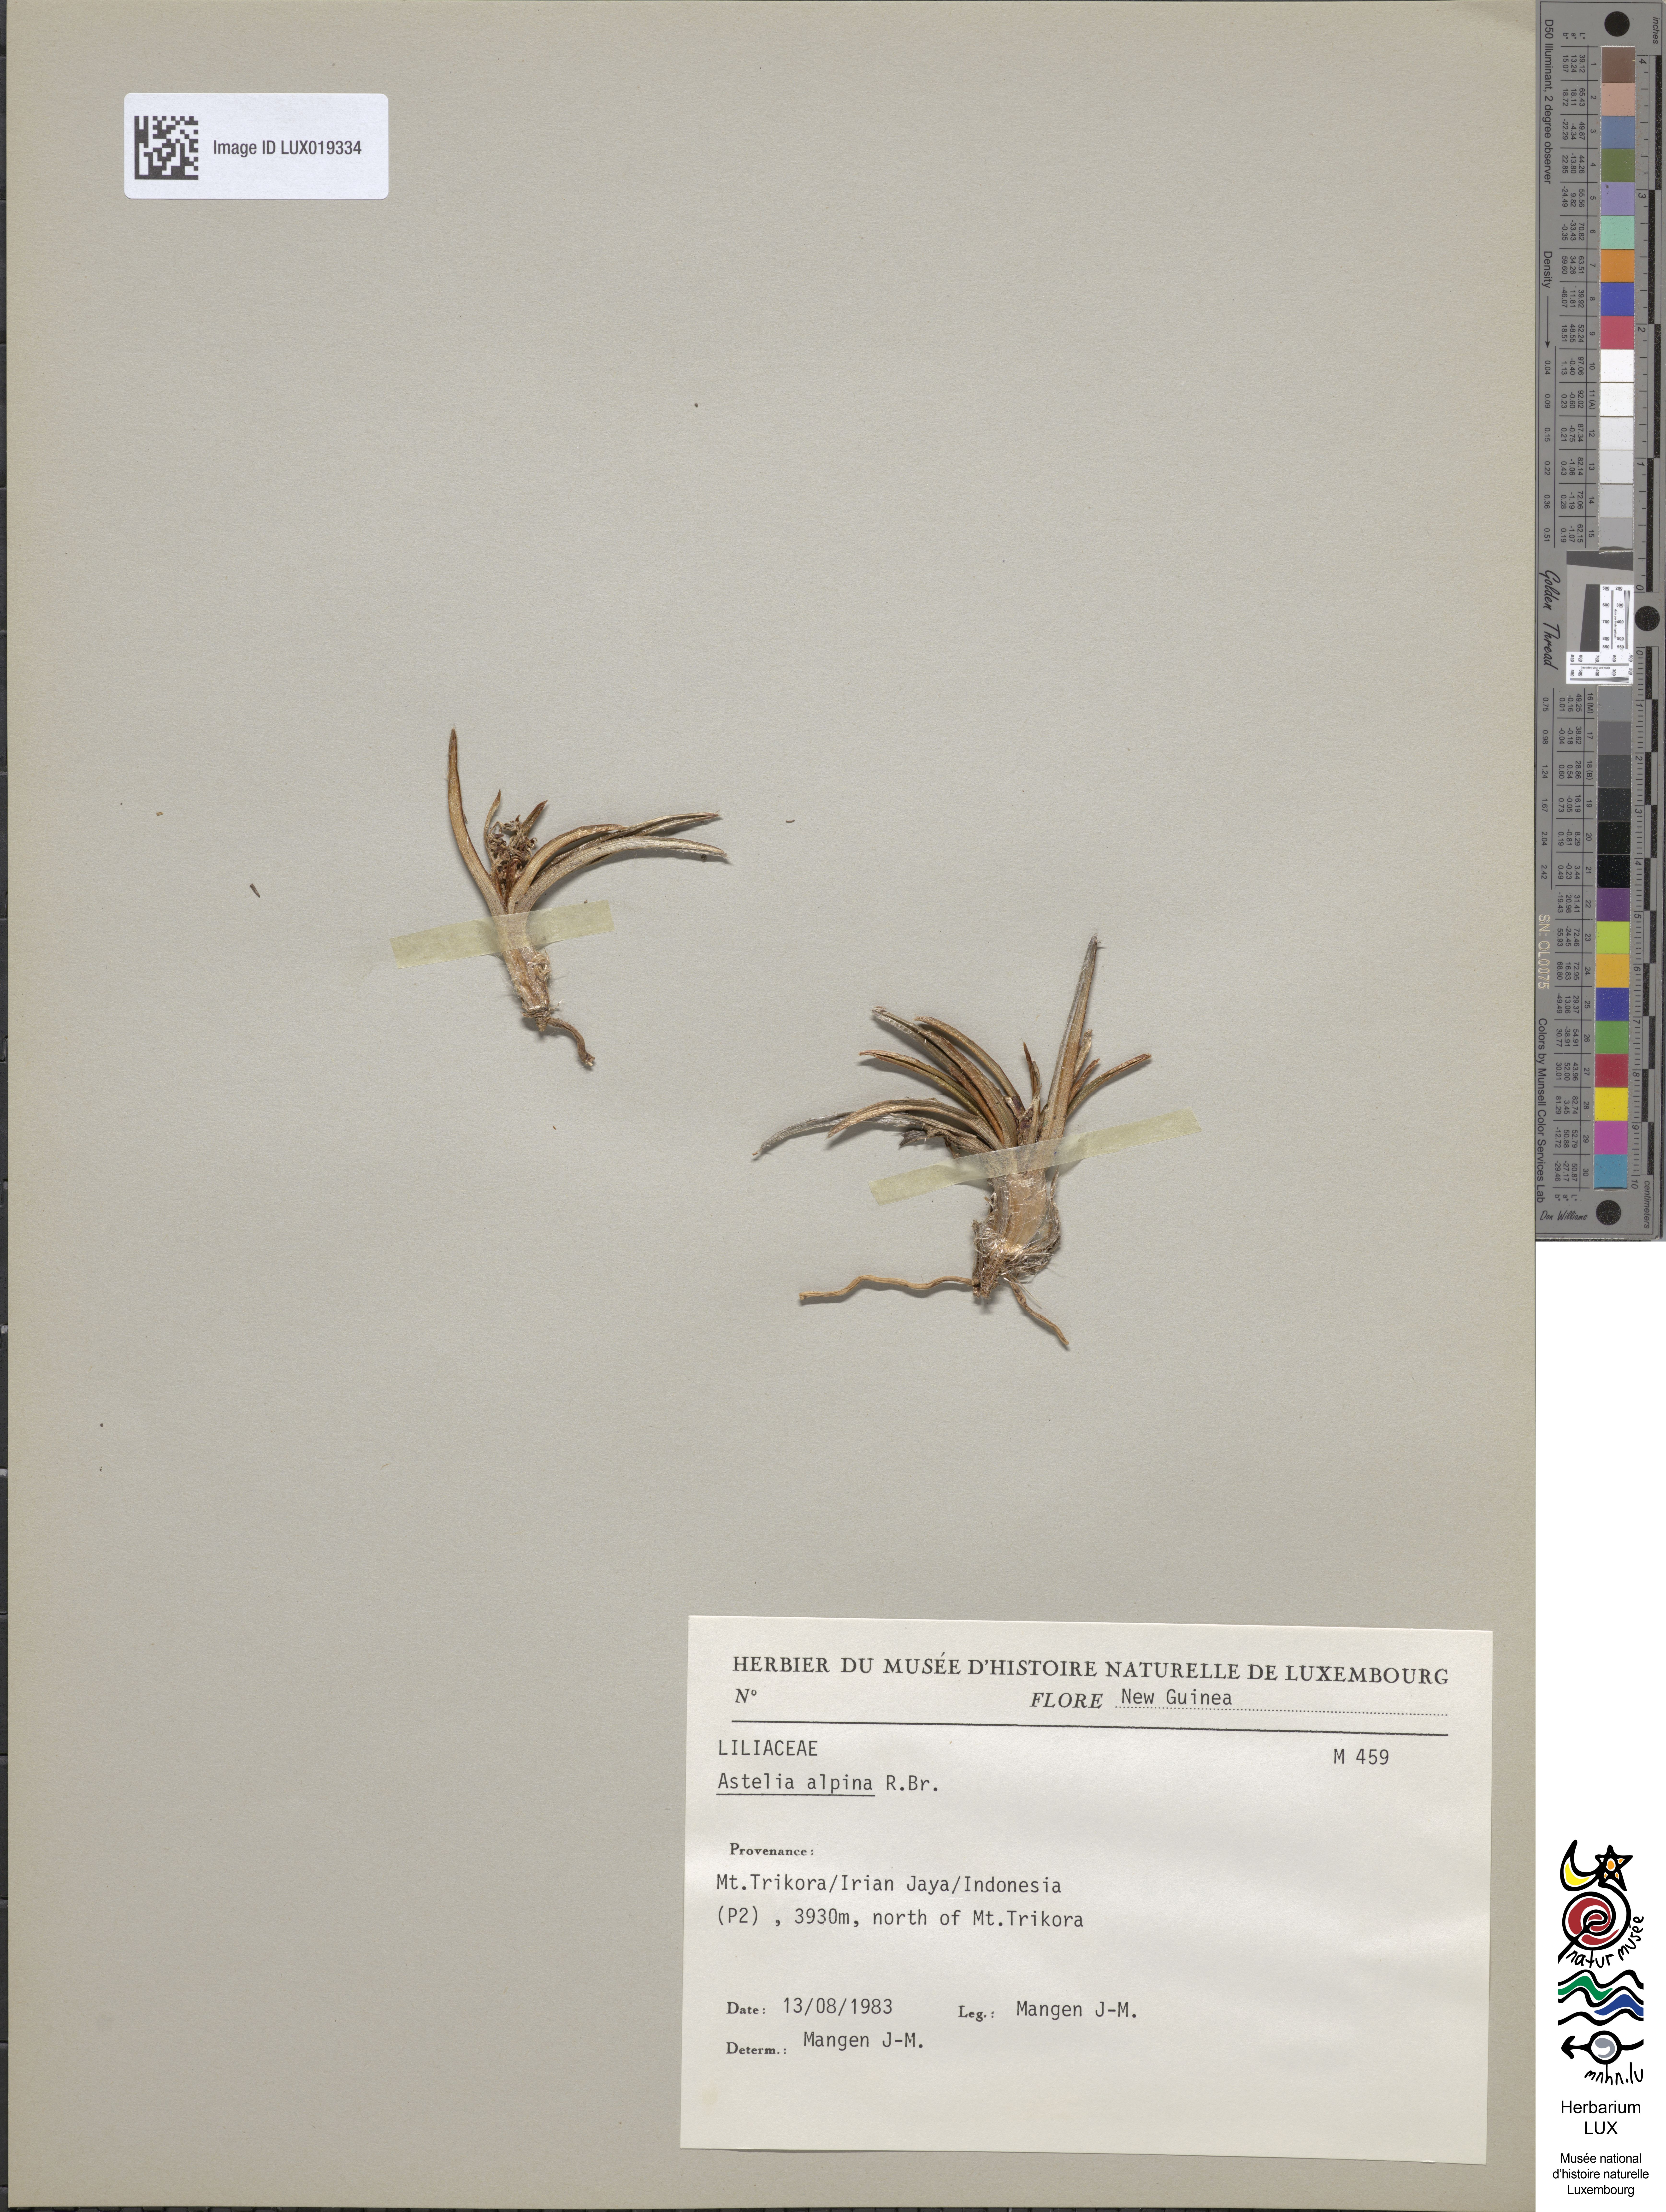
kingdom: Plantae
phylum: Tracheophyta
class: Liliopsida
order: Asparagales
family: Asteliaceae
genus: Astelia
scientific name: Astelia alpina
